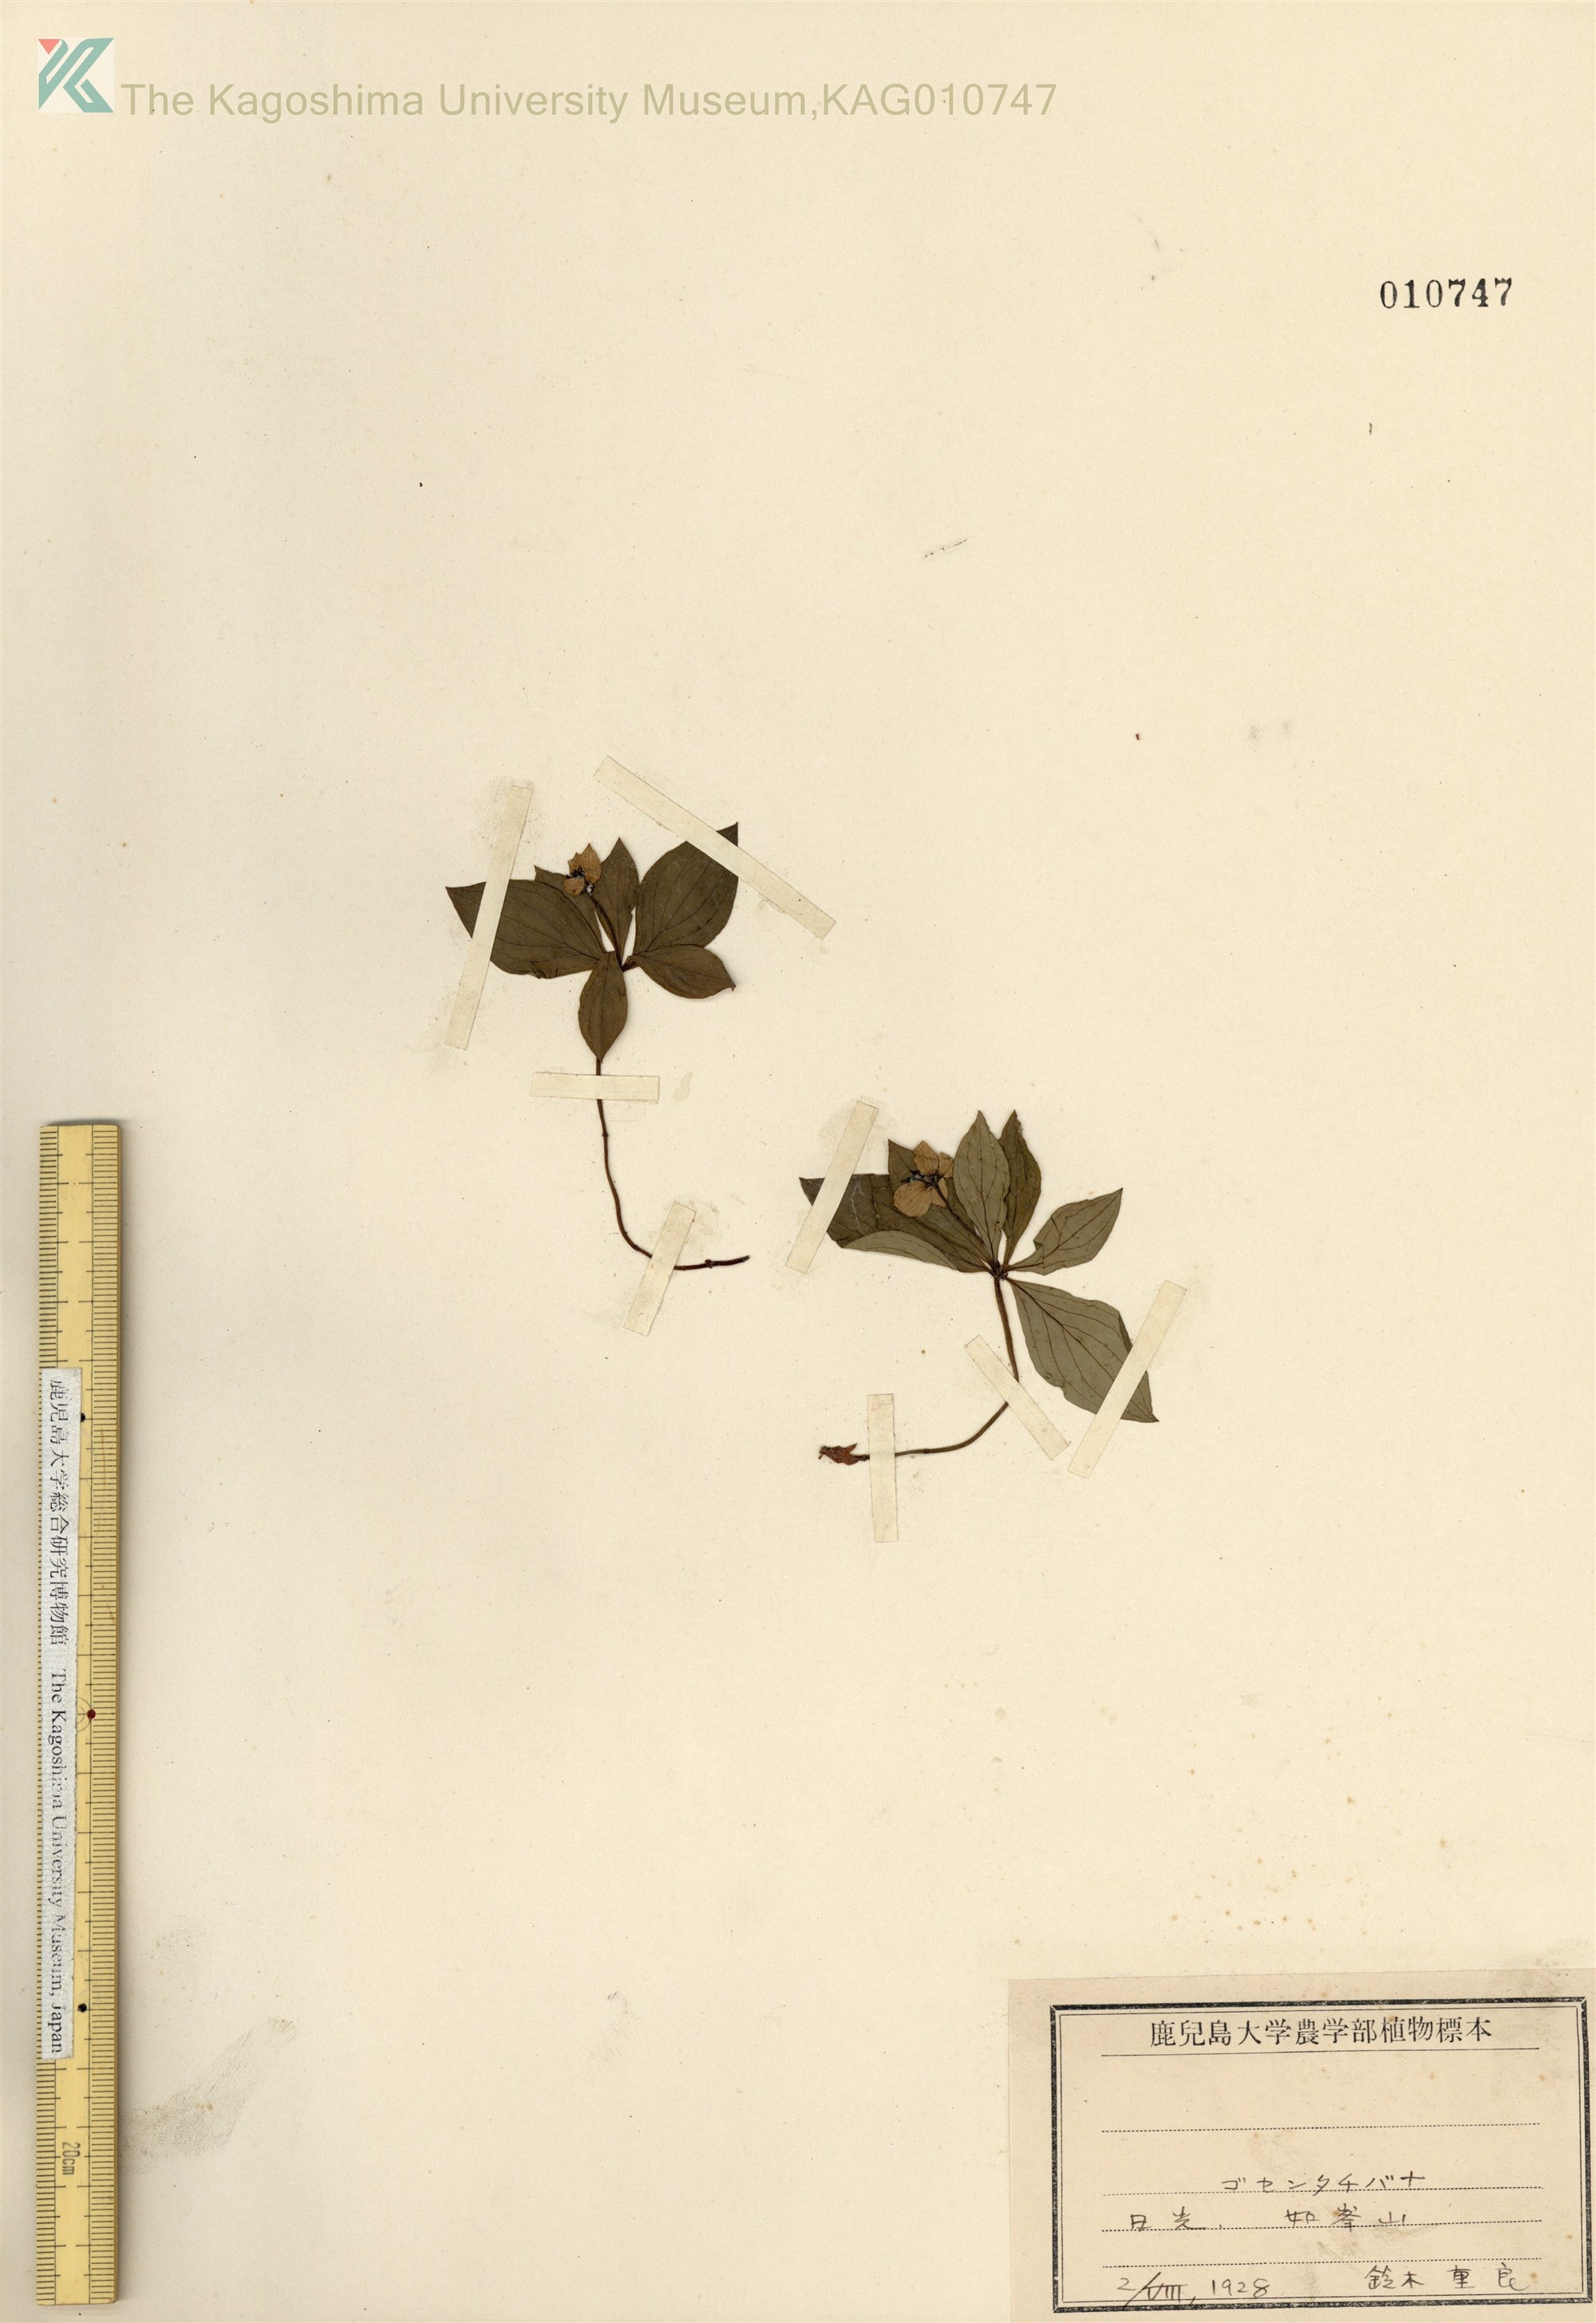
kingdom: Plantae
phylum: Tracheophyta
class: Magnoliopsida
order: Cornales
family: Cornaceae
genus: Cornus
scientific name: Cornus canadensis
